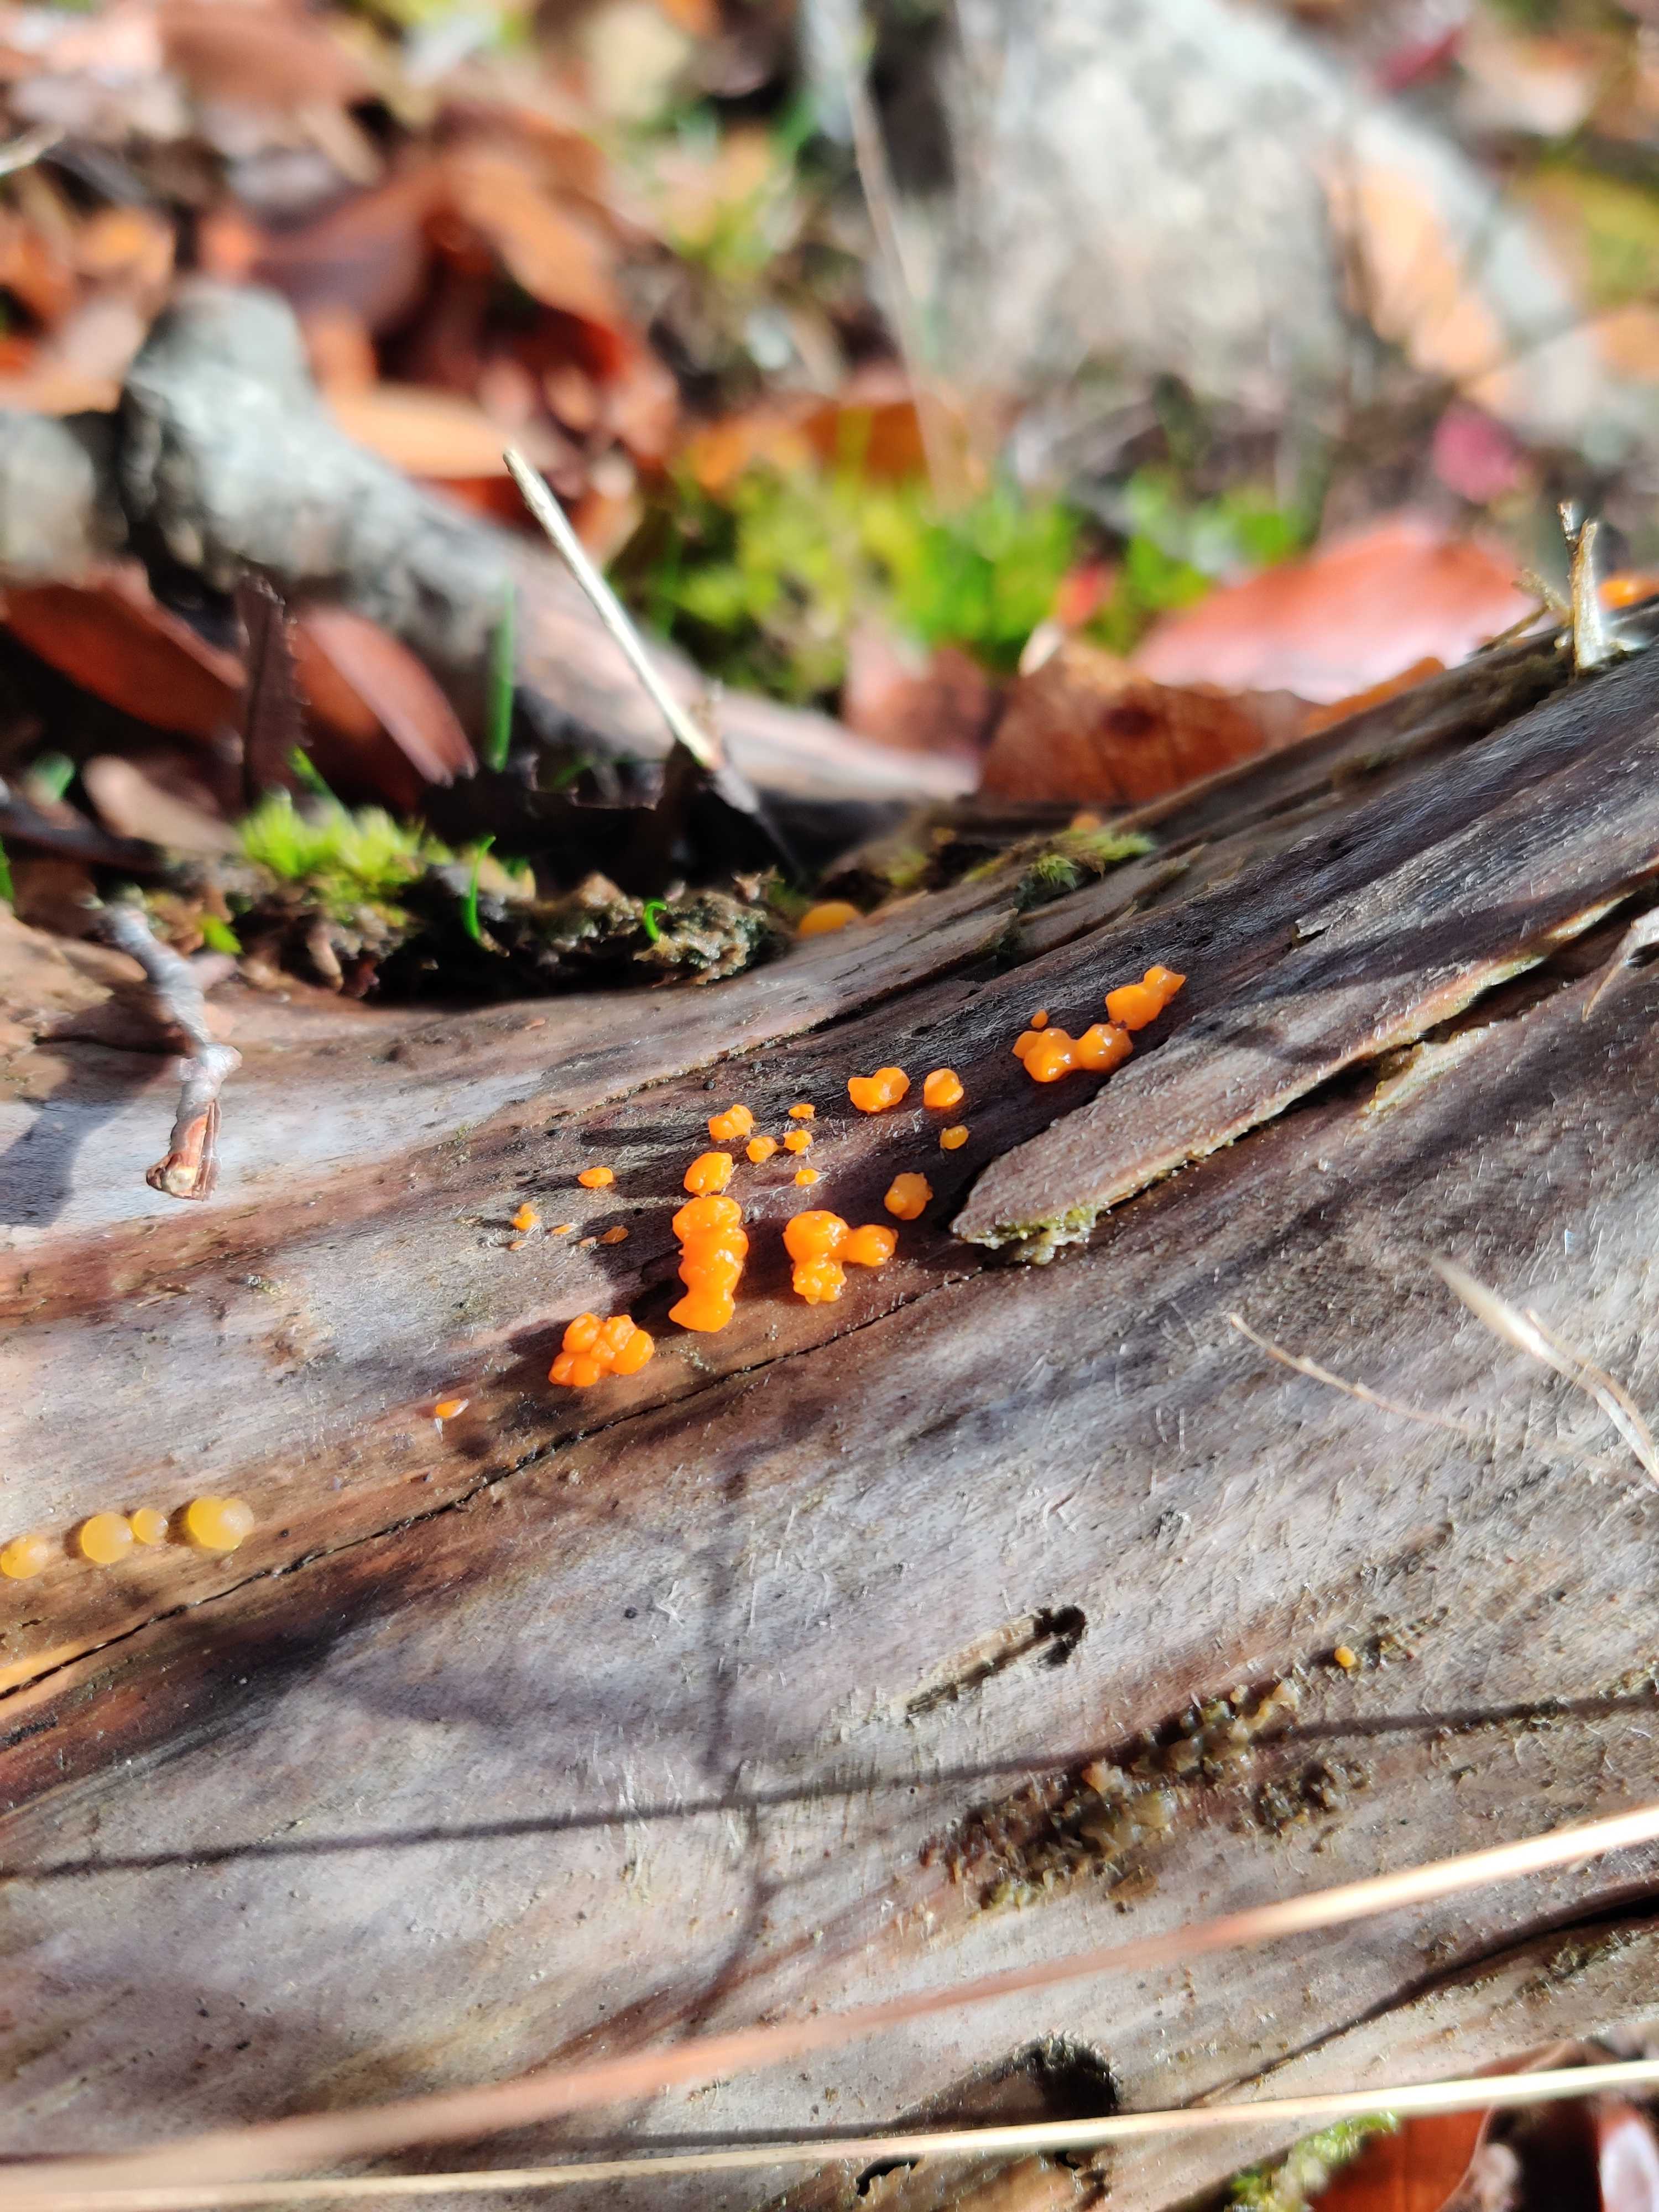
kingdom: Fungi
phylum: Basidiomycota
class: Dacrymycetes
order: Dacrymycetales
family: Dacrymycetaceae
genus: Dacrymyces
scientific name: Dacrymyces stillatus
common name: almindelig tåresvamp
